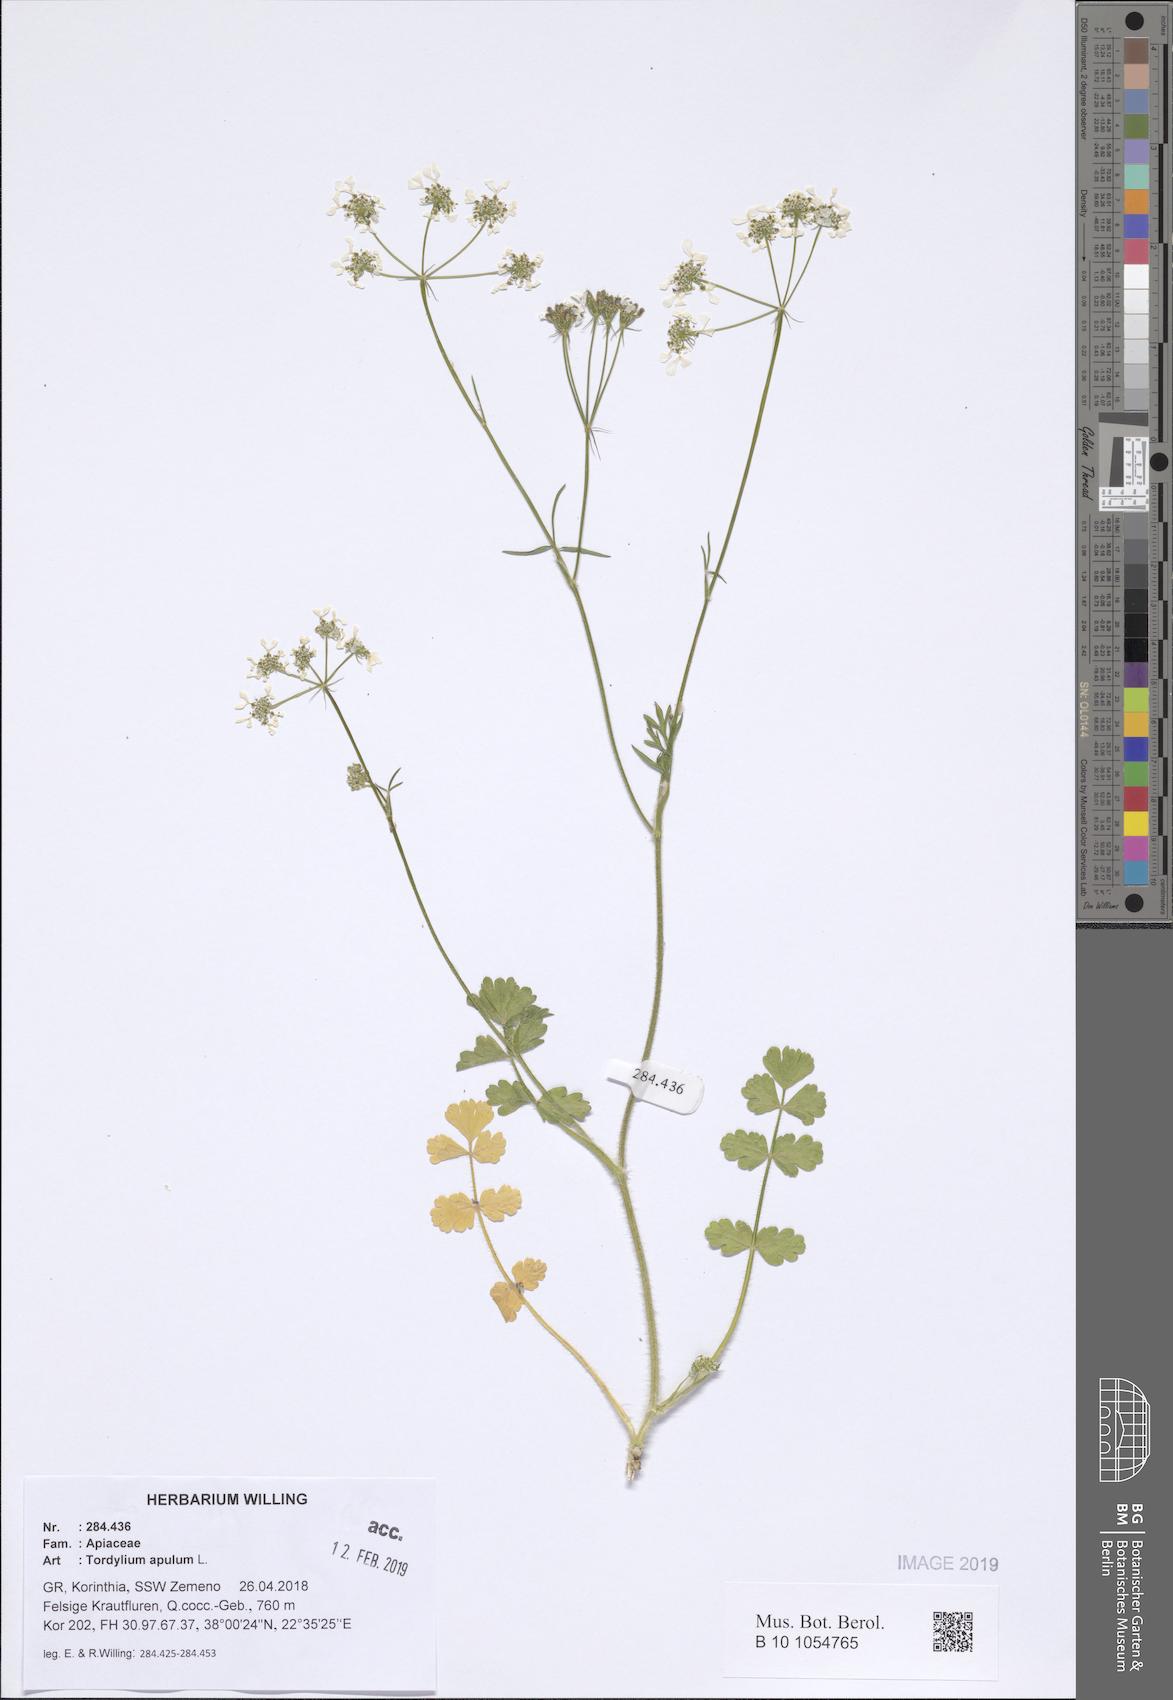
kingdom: Plantae
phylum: Tracheophyta
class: Magnoliopsida
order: Apiales
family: Apiaceae
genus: Tordylium
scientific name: Tordylium apulum
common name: Mediterranean hartwort
